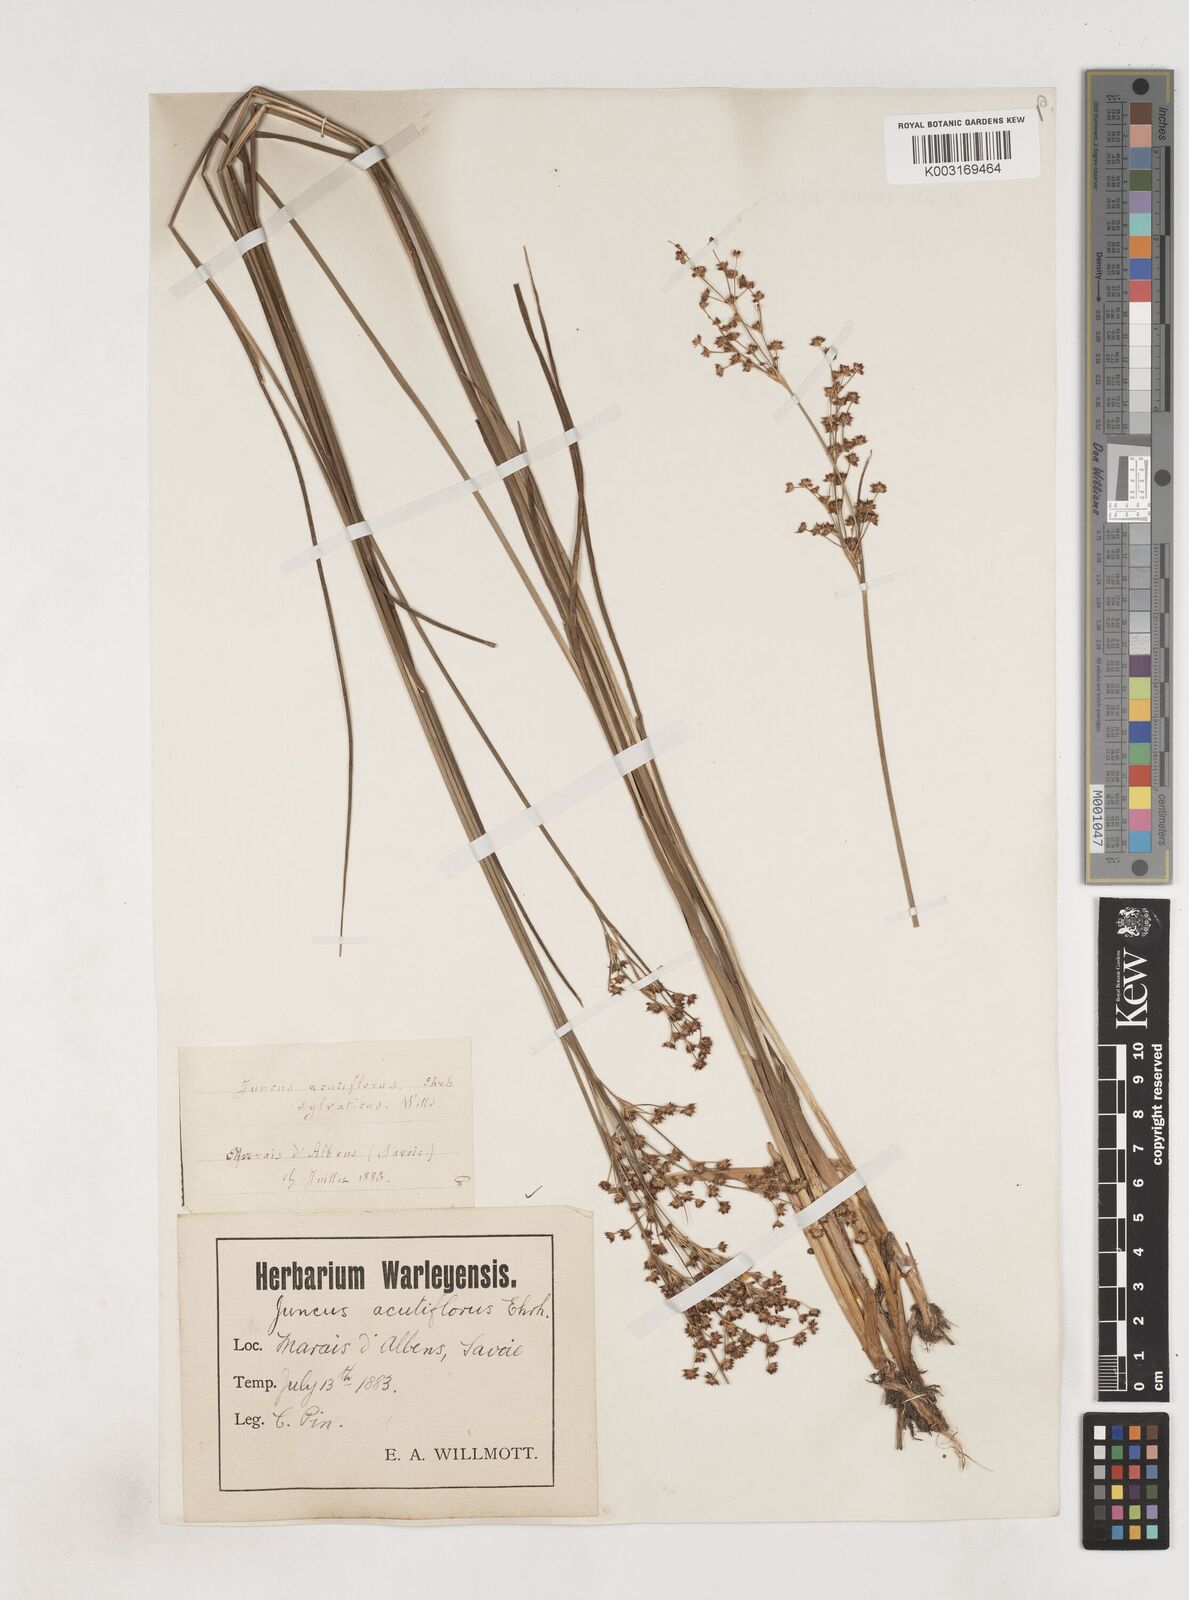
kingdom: Plantae
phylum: Tracheophyta
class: Liliopsida
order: Poales
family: Juncaceae
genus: Juncus
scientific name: Juncus acutiflorus
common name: Sharp-flowered rush
